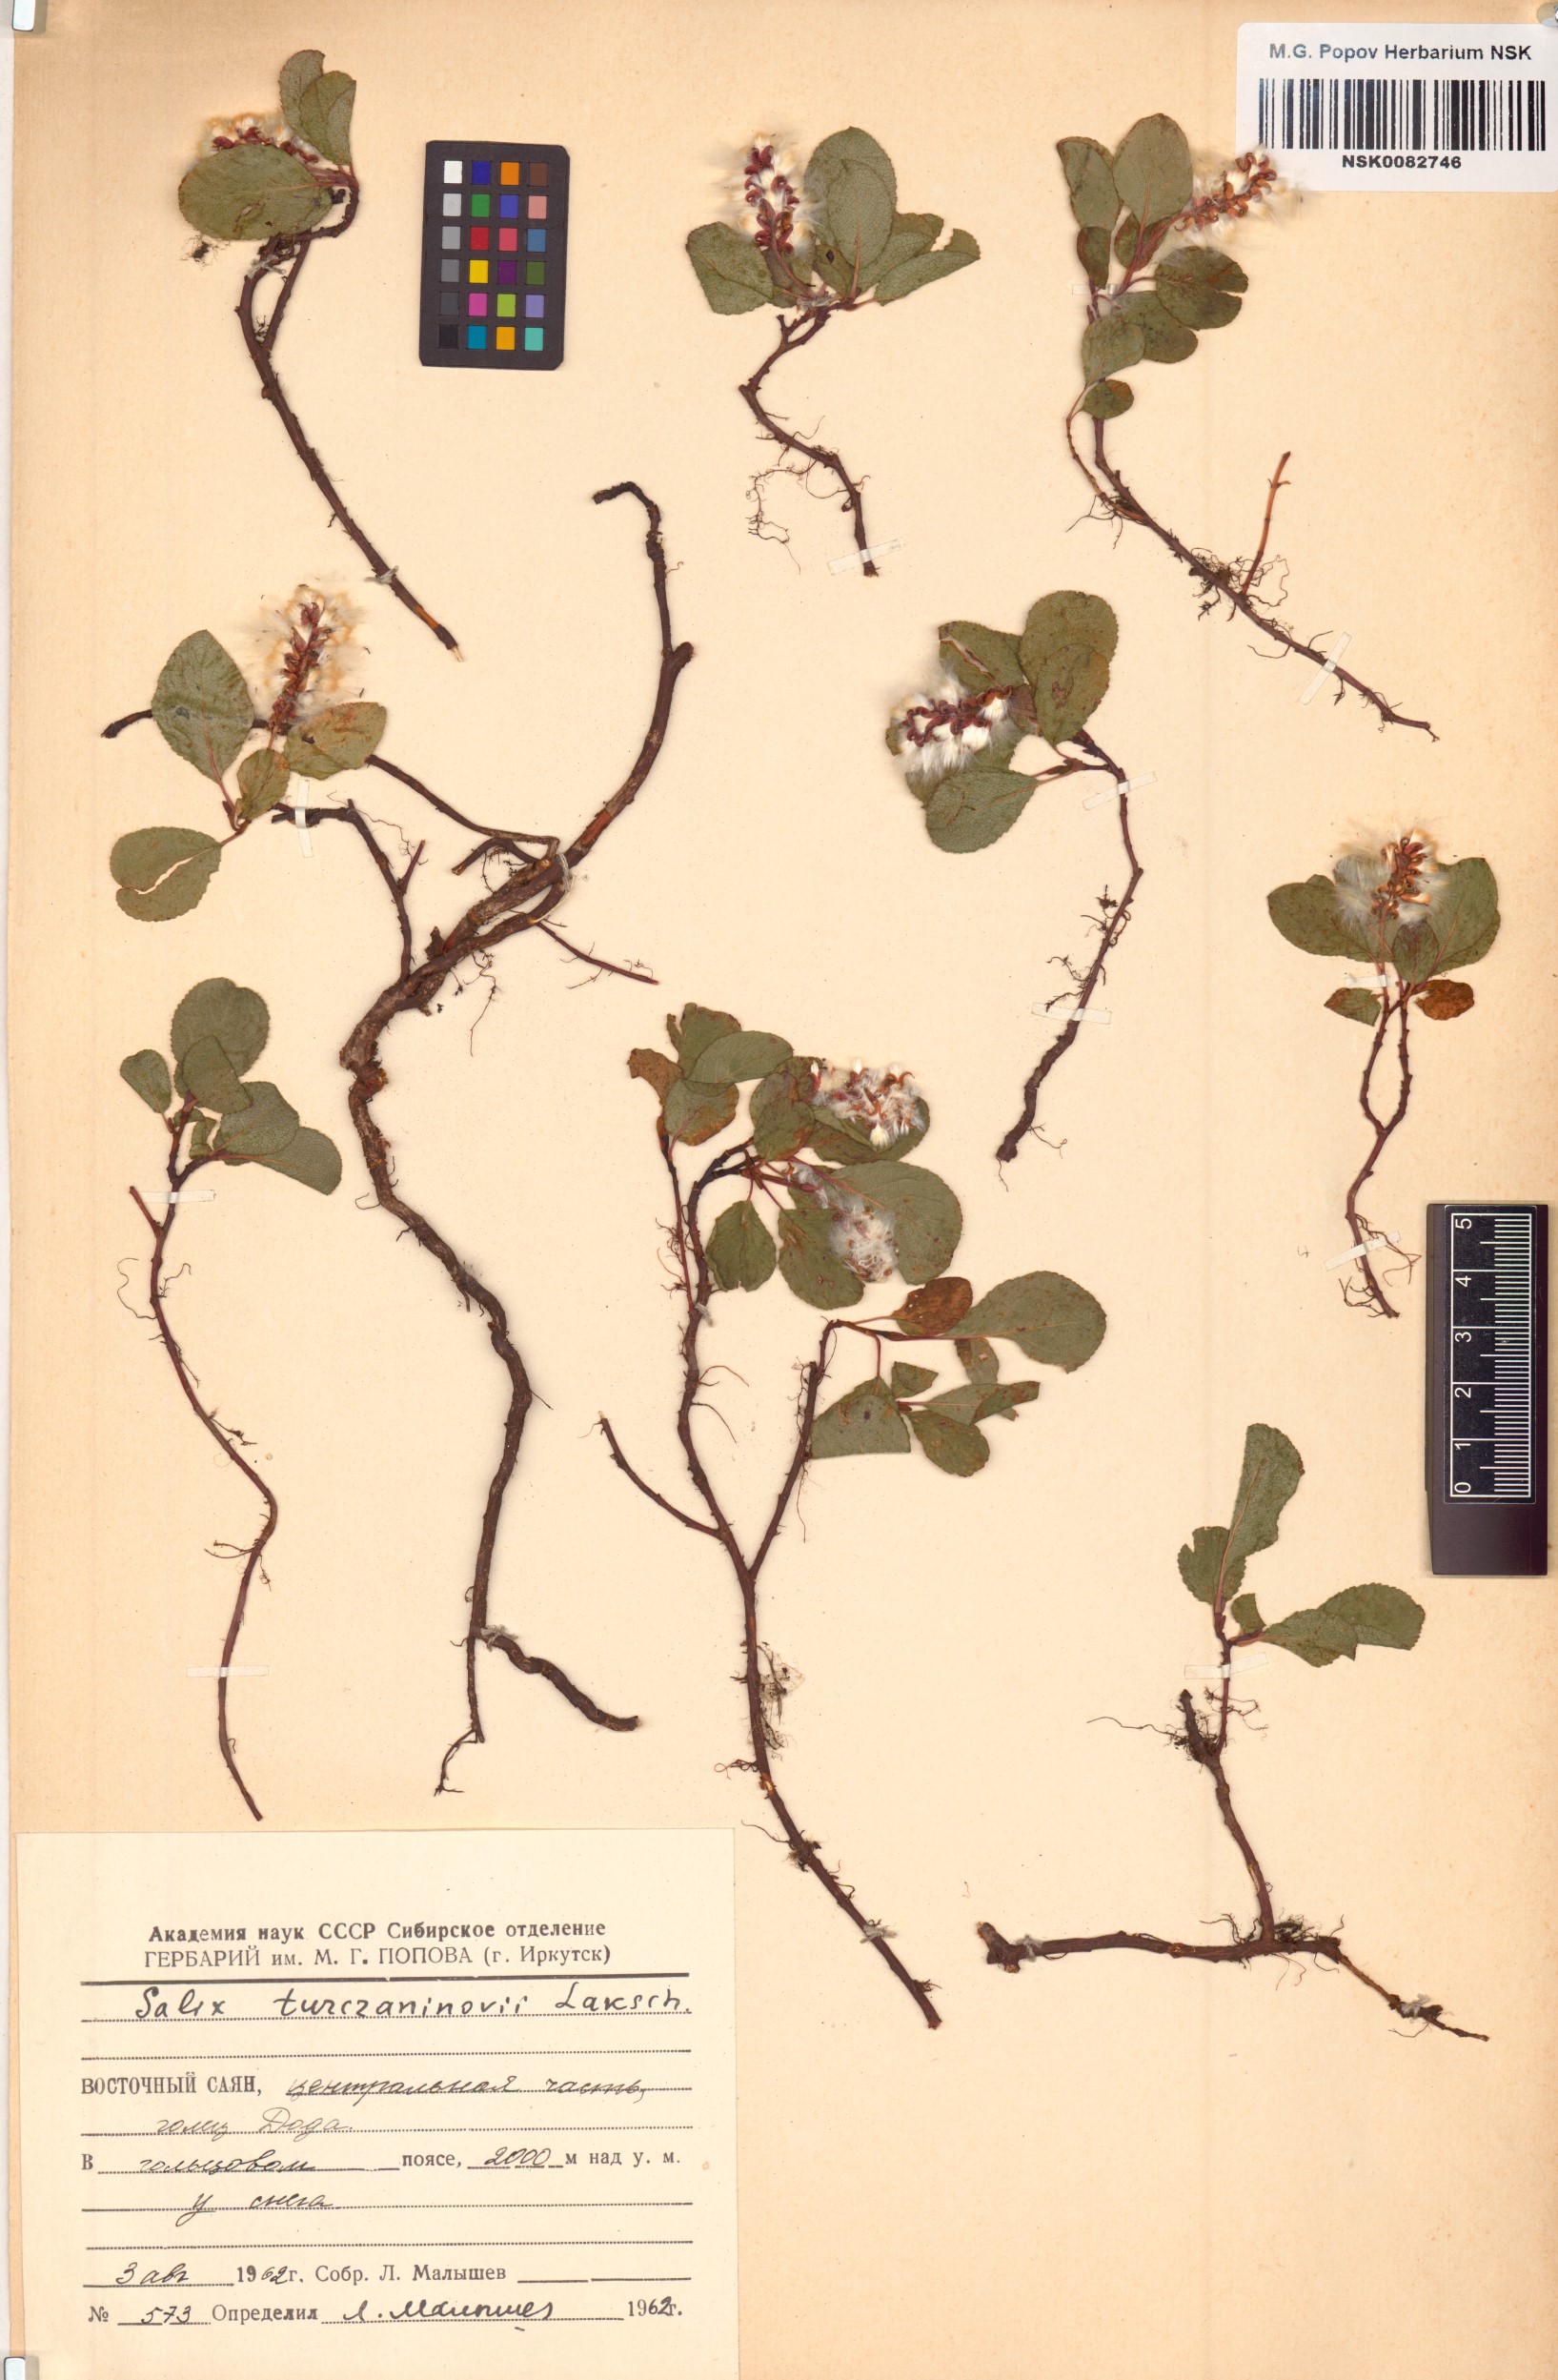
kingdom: Plantae
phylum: Tracheophyta
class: Magnoliopsida
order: Malpighiales
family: Salicaceae
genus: Salix
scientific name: Salix turczaninowii
